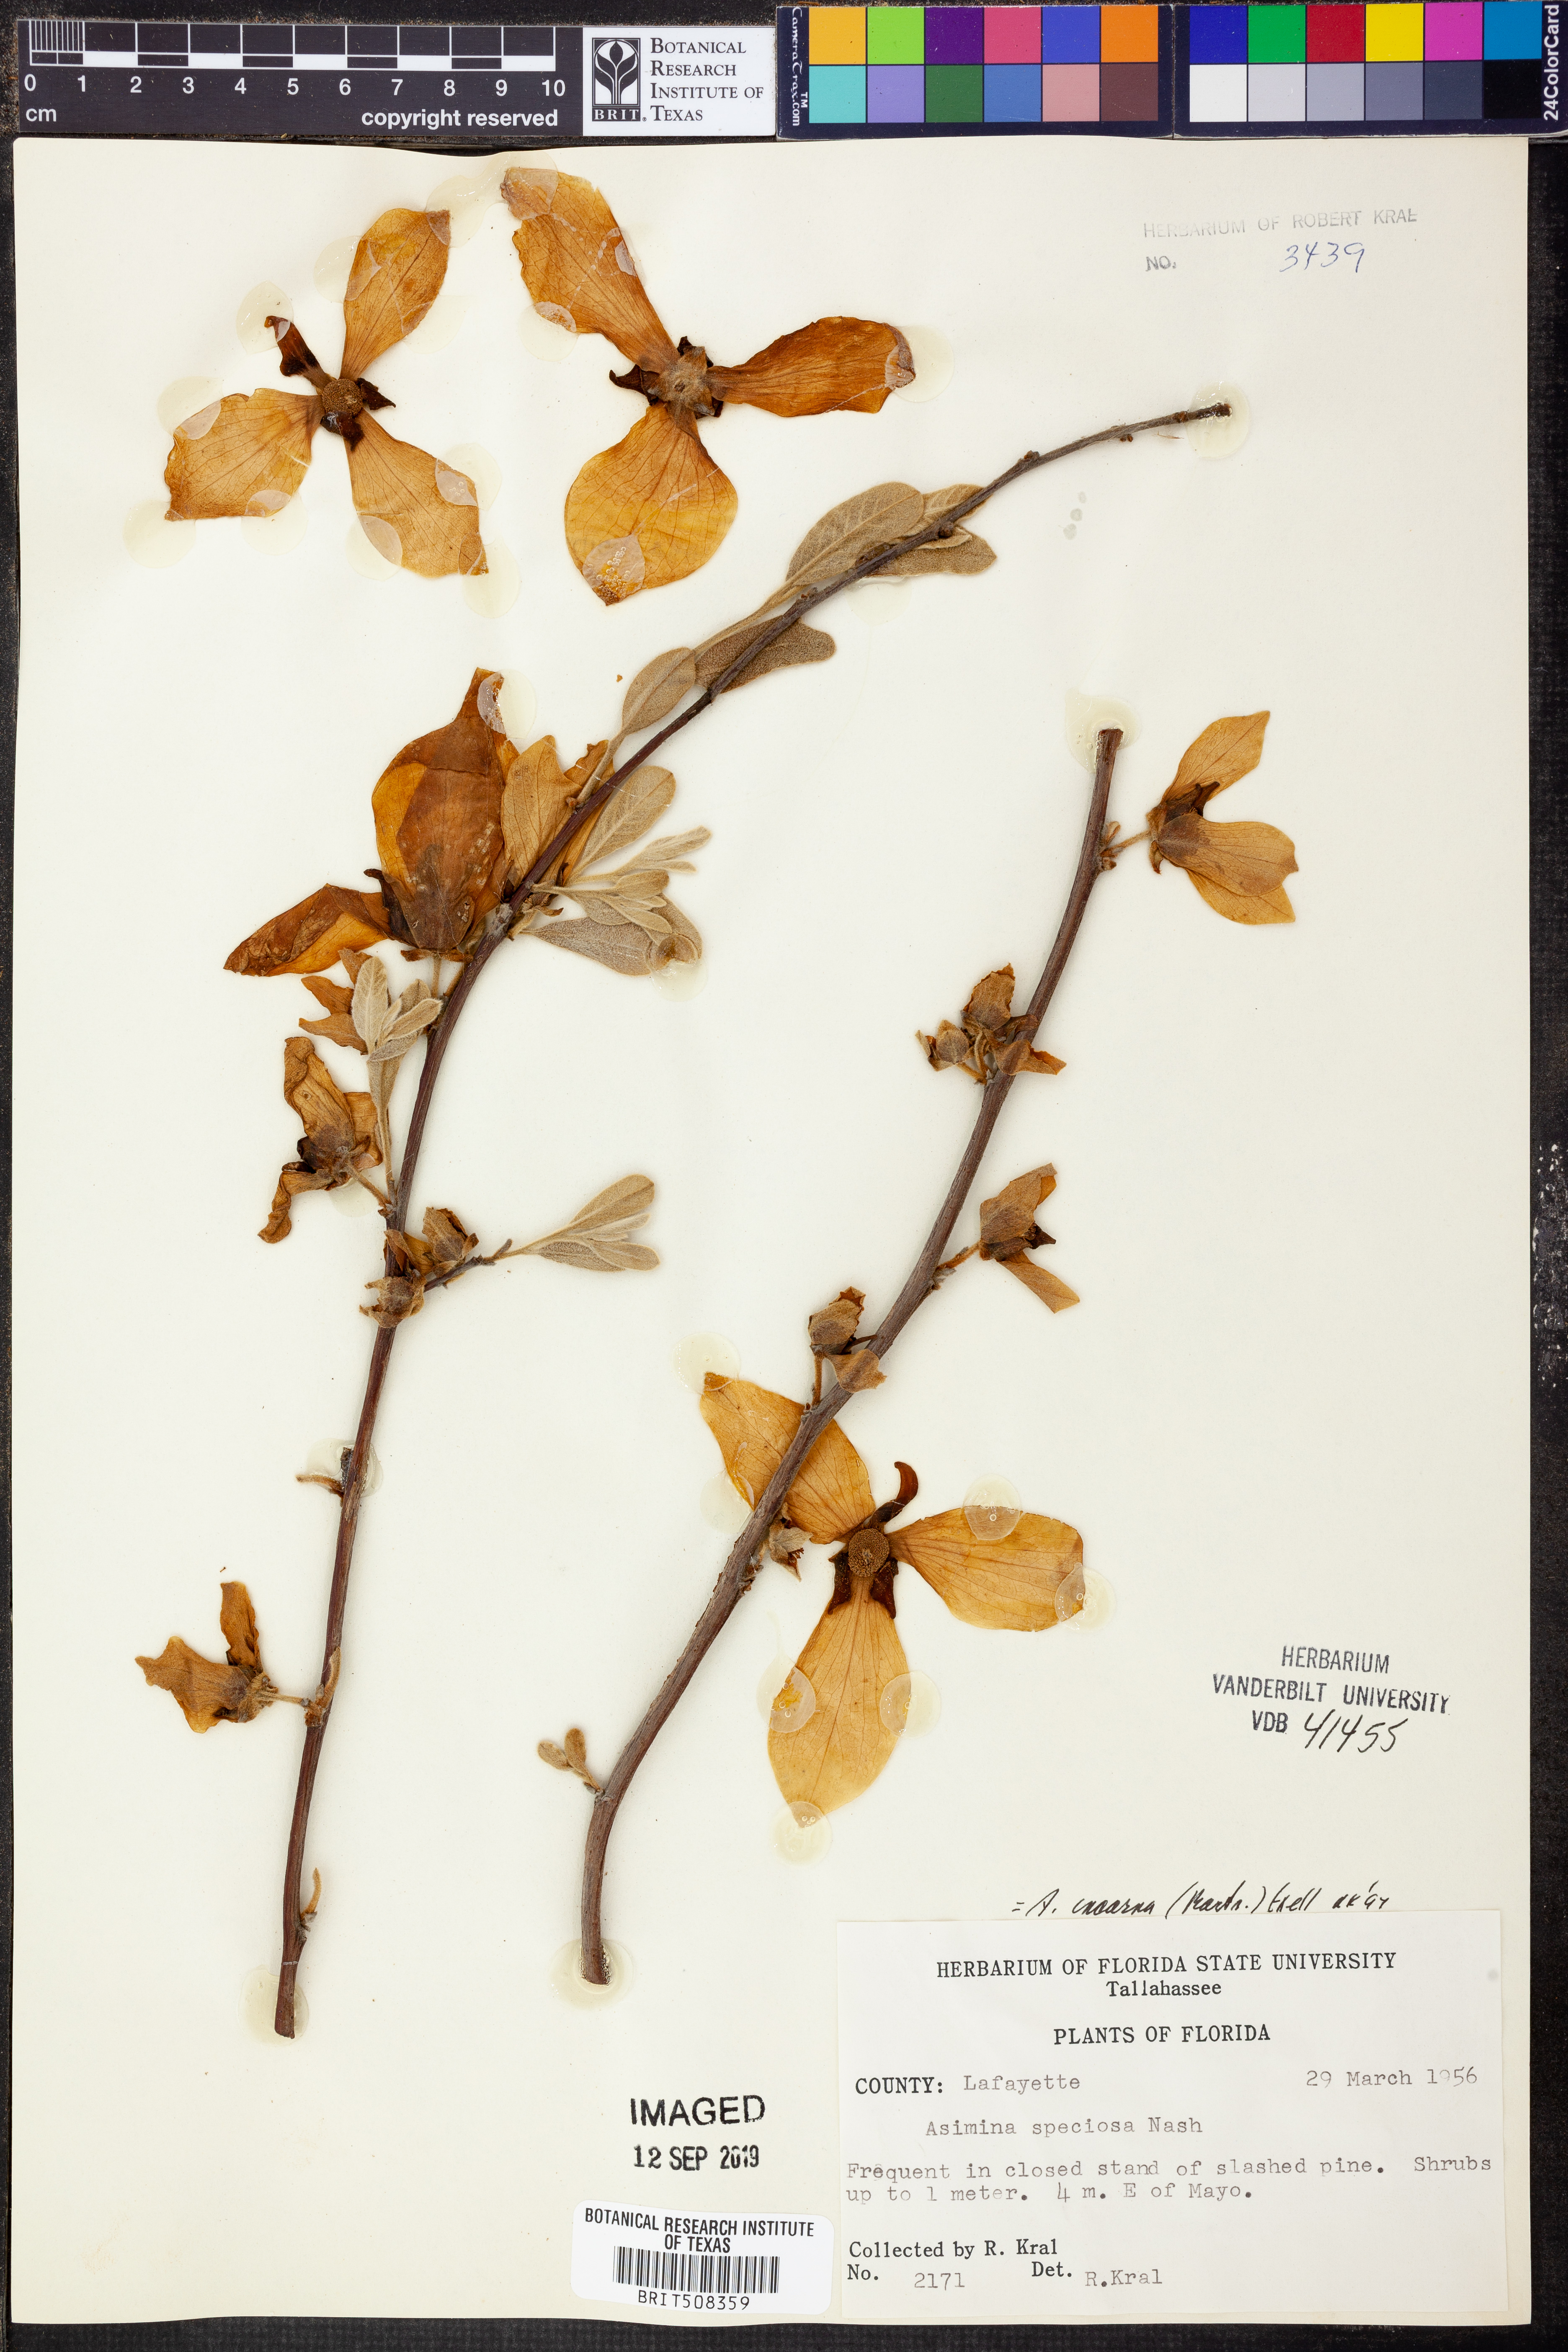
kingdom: Plantae
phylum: Tracheophyta
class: Magnoliopsida
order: Magnoliales
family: Annonaceae
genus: Asimina
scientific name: Asimina speciosa
